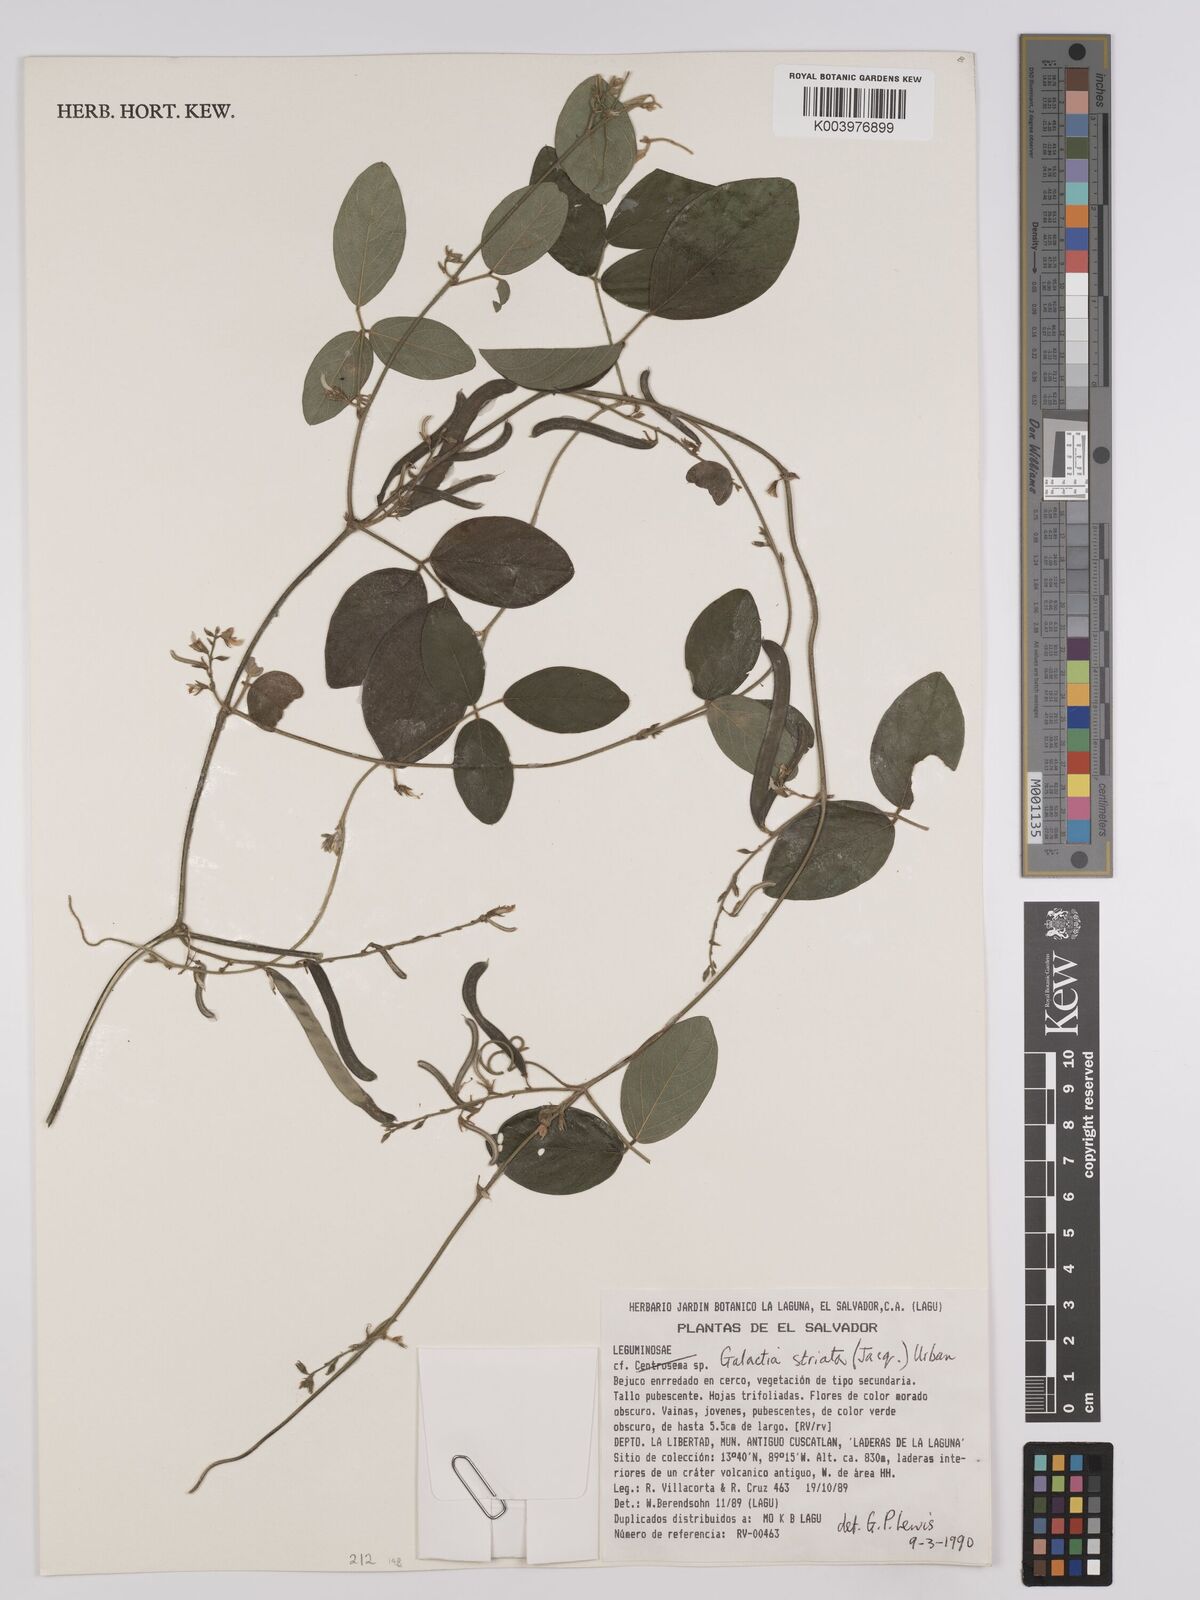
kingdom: Plantae
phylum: Tracheophyta
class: Magnoliopsida
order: Fabales
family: Fabaceae
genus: Galactia
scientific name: Galactia striata
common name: Florida hammock milkpea
